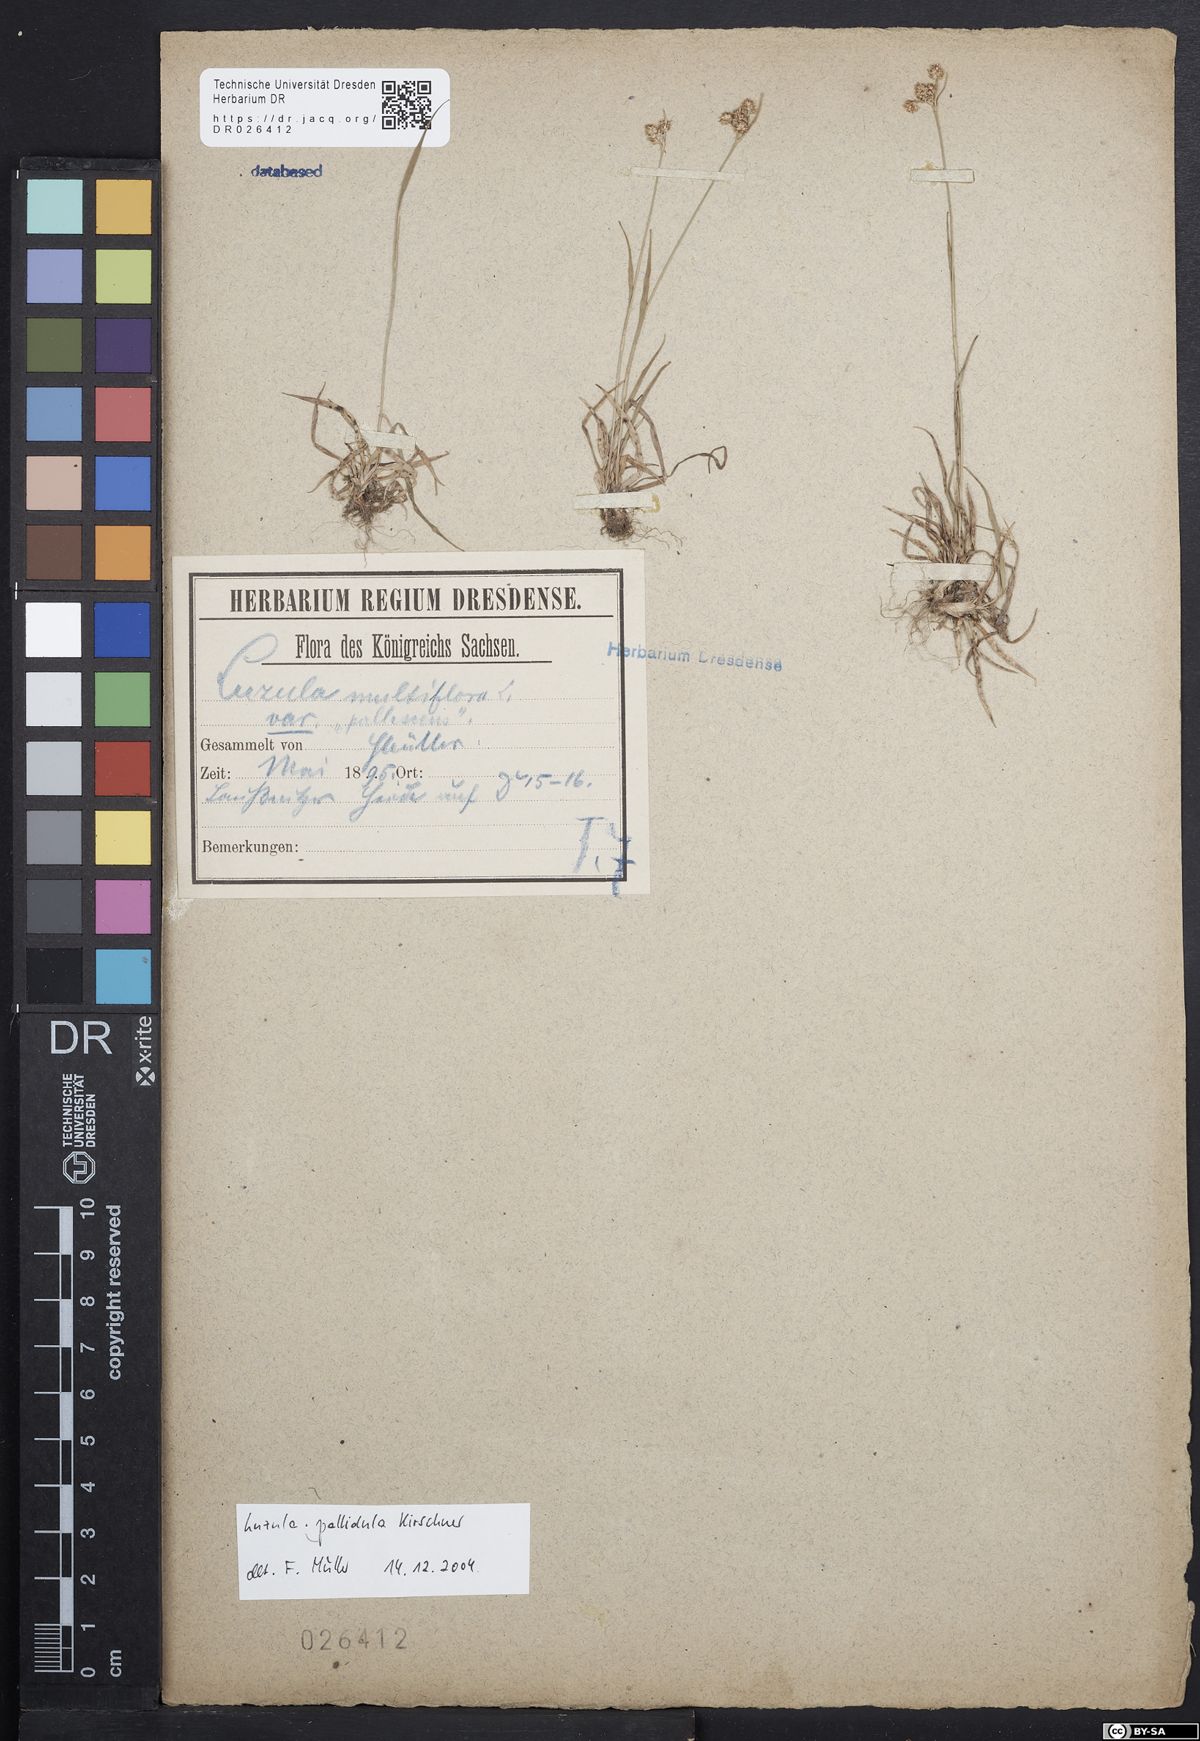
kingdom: Plantae
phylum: Tracheophyta
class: Liliopsida
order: Poales
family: Juncaceae
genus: Luzula
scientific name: Luzula pallescens
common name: Fen wood-rush
